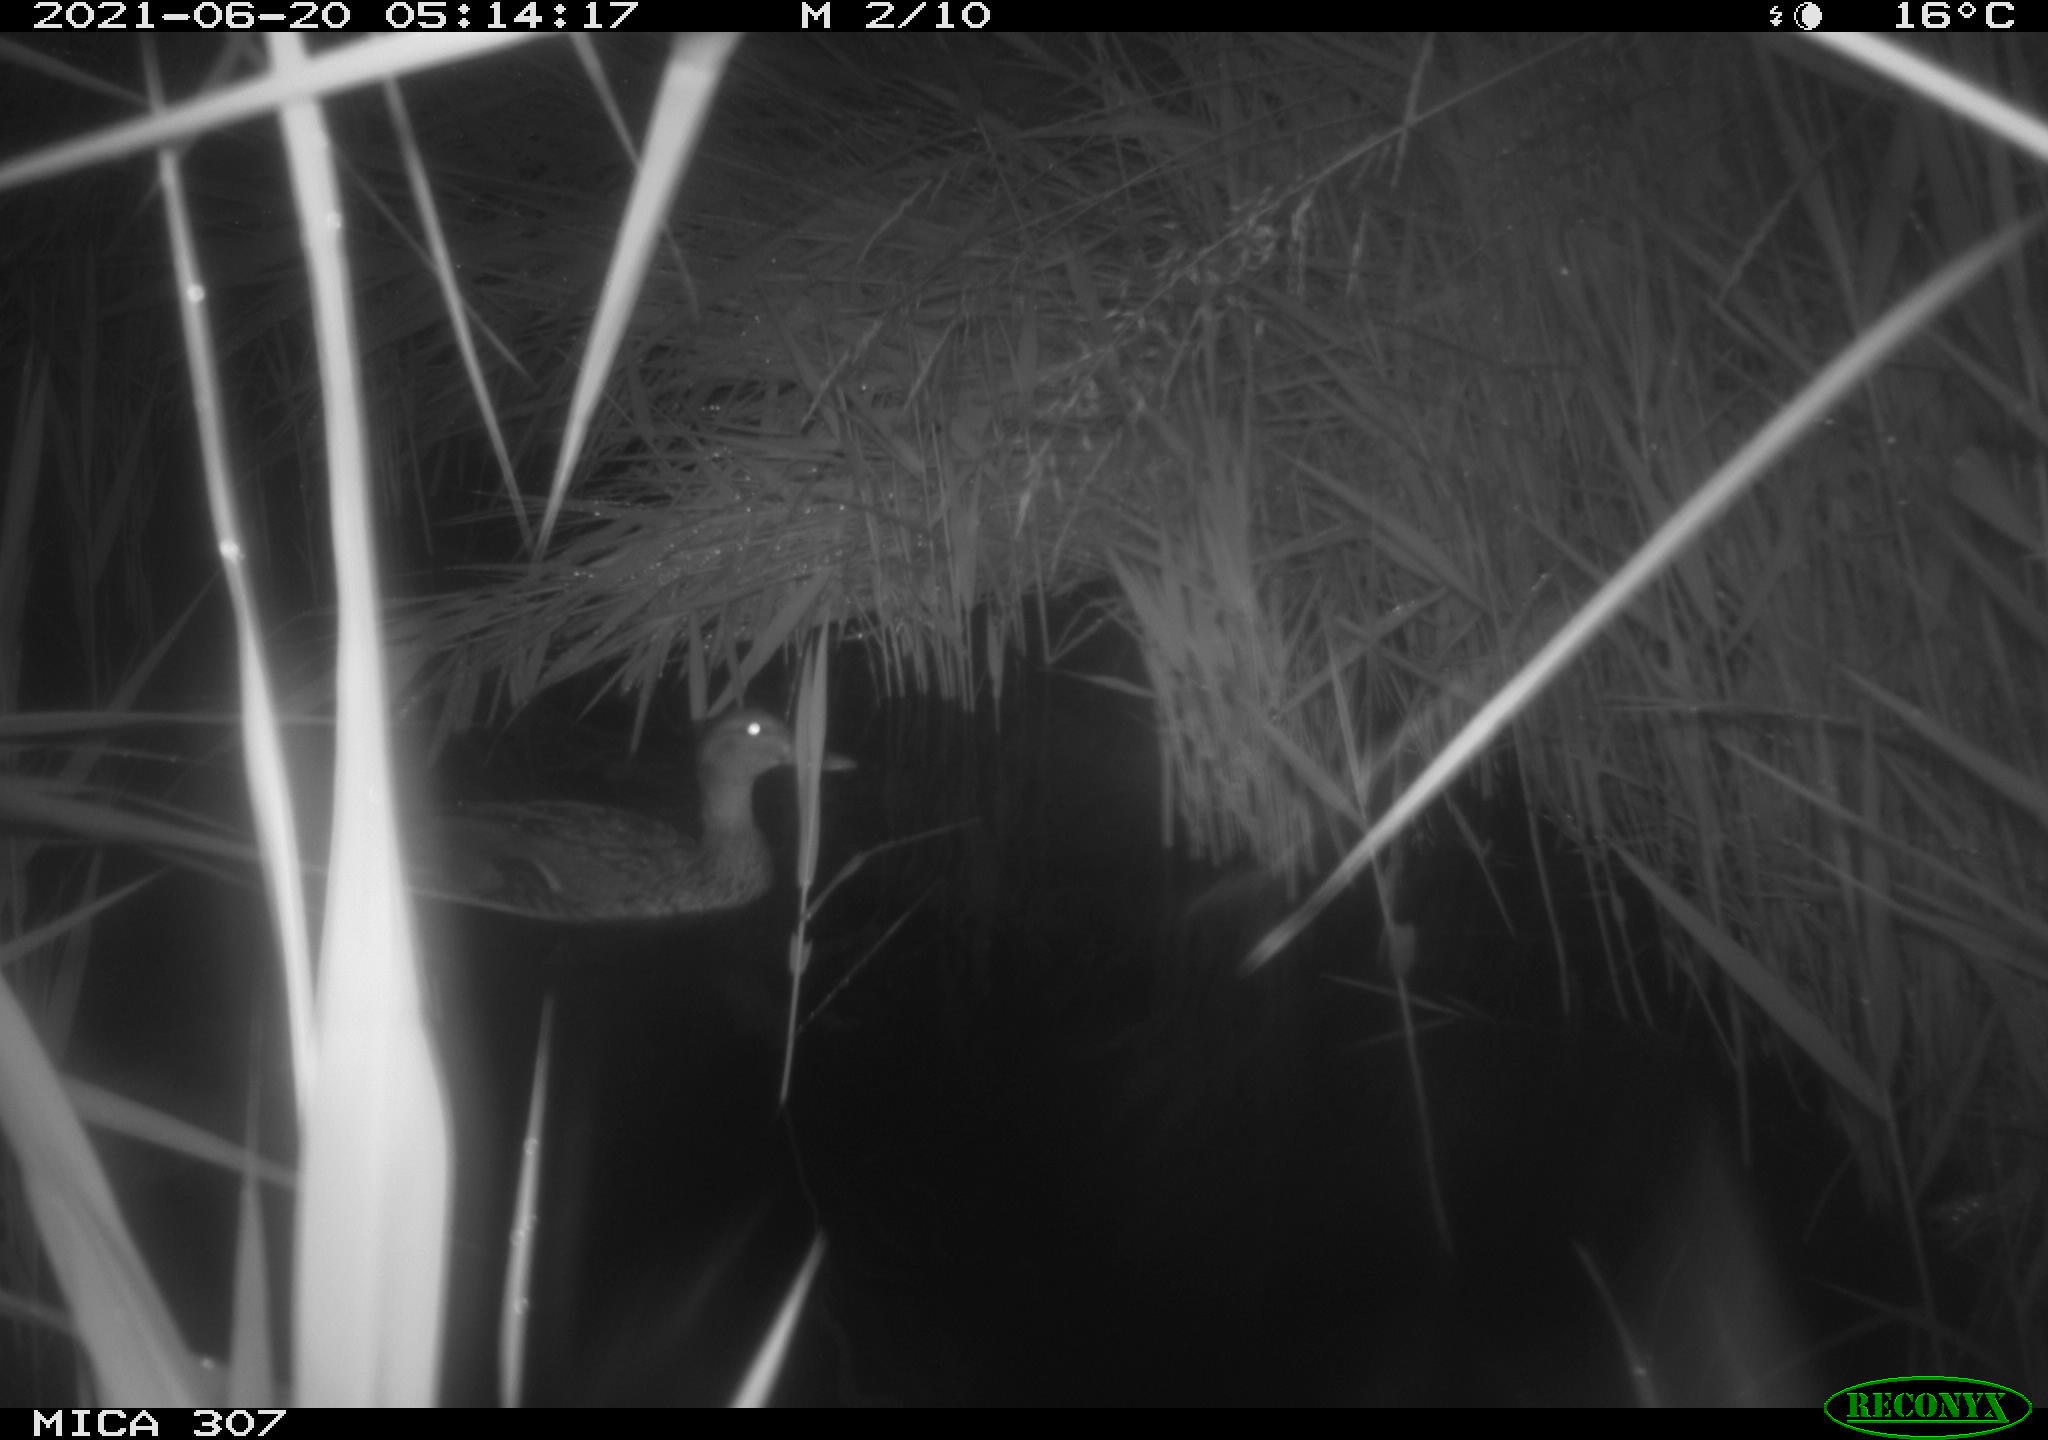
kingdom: Animalia
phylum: Chordata
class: Aves
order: Anseriformes
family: Anatidae
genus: Anas
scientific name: Anas platyrhynchos
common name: Mallard
